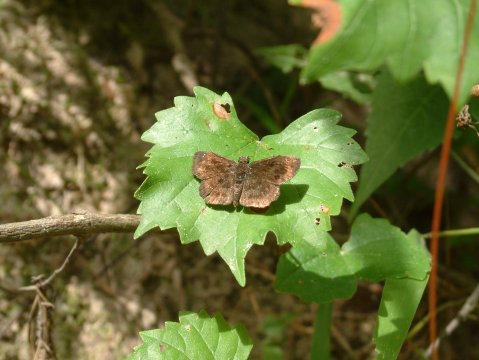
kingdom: Animalia
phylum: Arthropoda
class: Insecta
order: Lepidoptera
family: Hesperiidae
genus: Staphylus
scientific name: Staphylus mazans
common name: Hayhurst's Scallopwing
